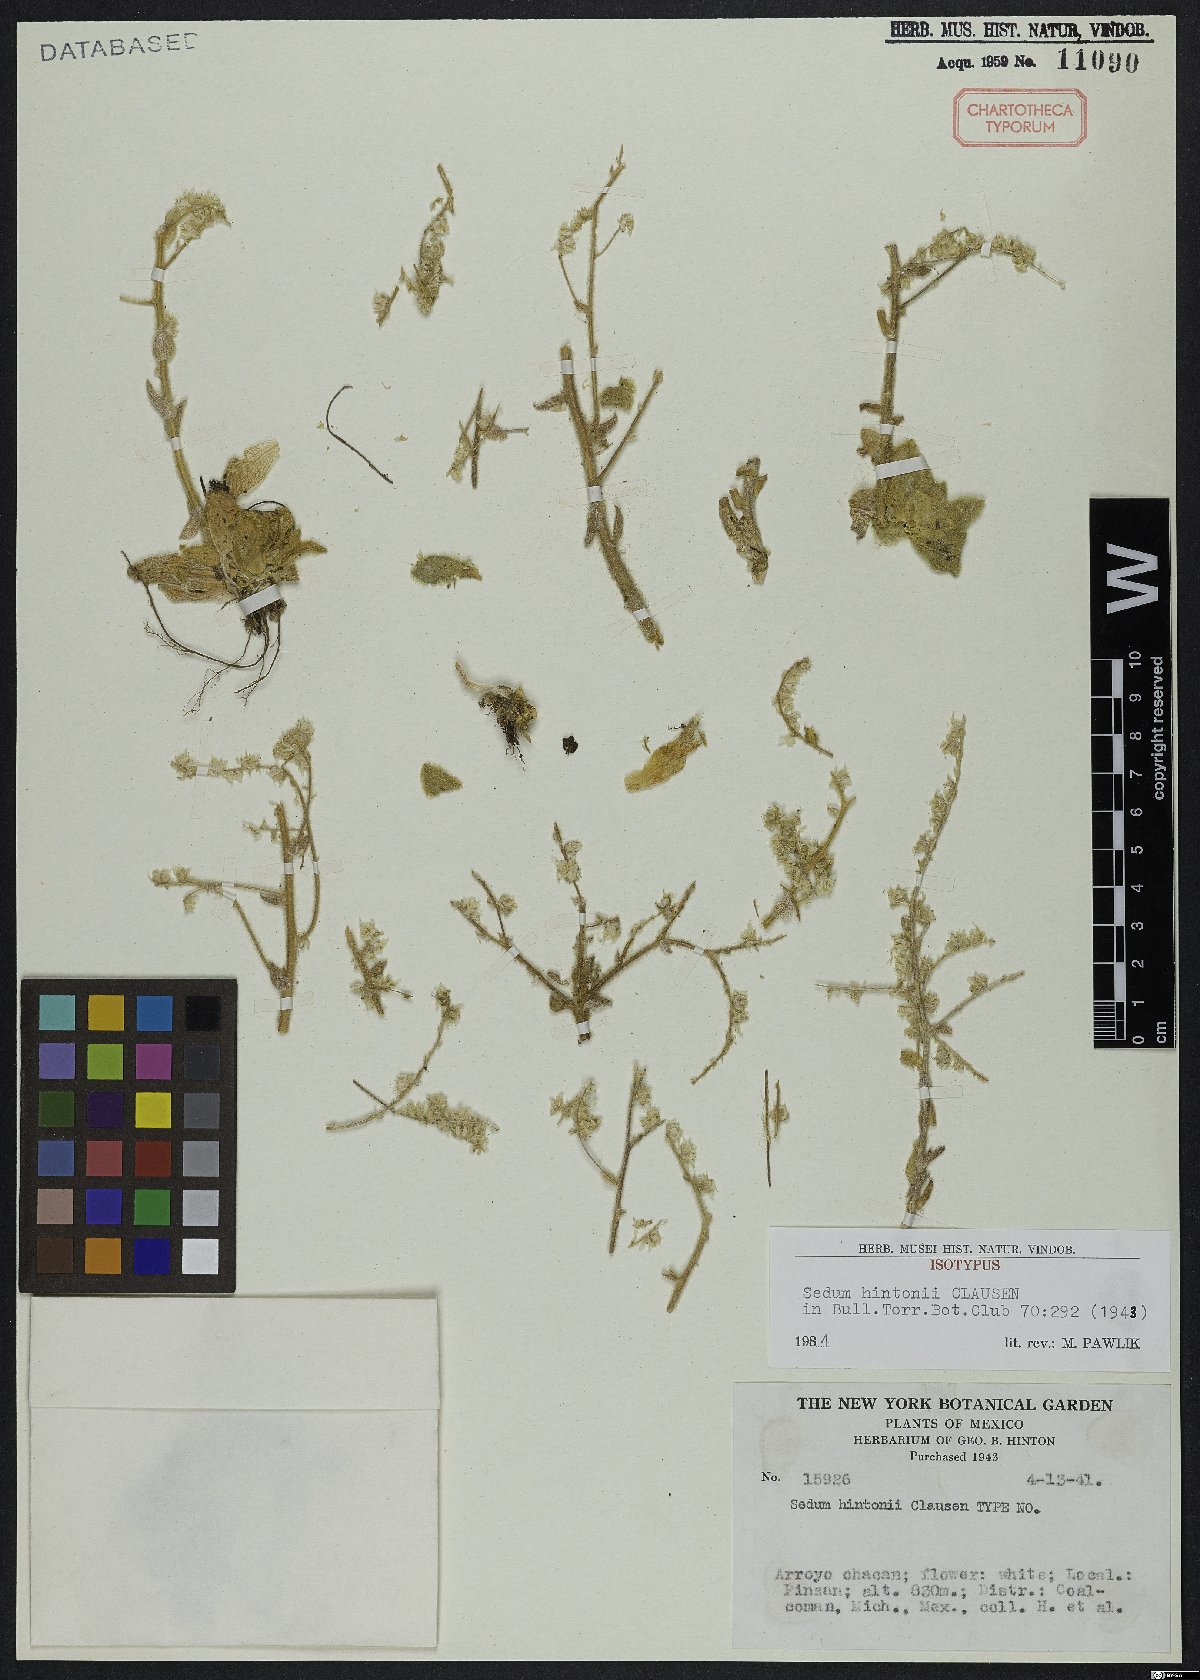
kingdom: Plantae
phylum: Tracheophyta
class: Magnoliopsida
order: Saxifragales
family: Crassulaceae
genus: Sedum
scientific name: Sedum hintonii
